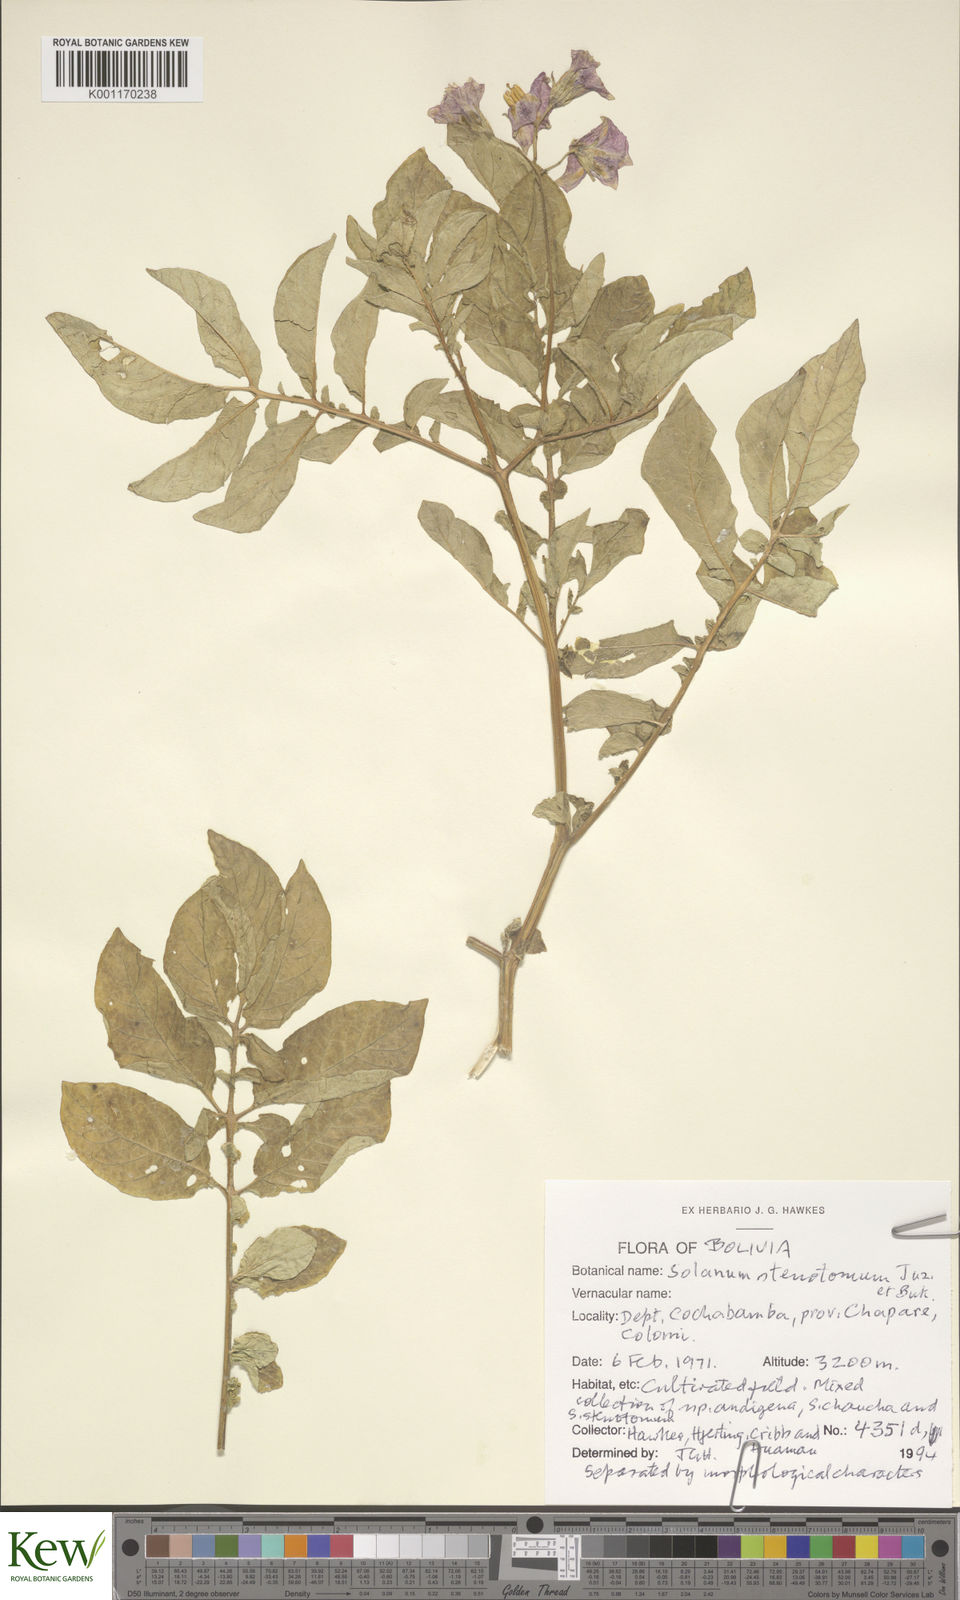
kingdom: Plantae
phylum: Tracheophyta
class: Magnoliopsida
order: Solanales
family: Solanaceae
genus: Solanum
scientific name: Solanum tuberosum
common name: Potato
